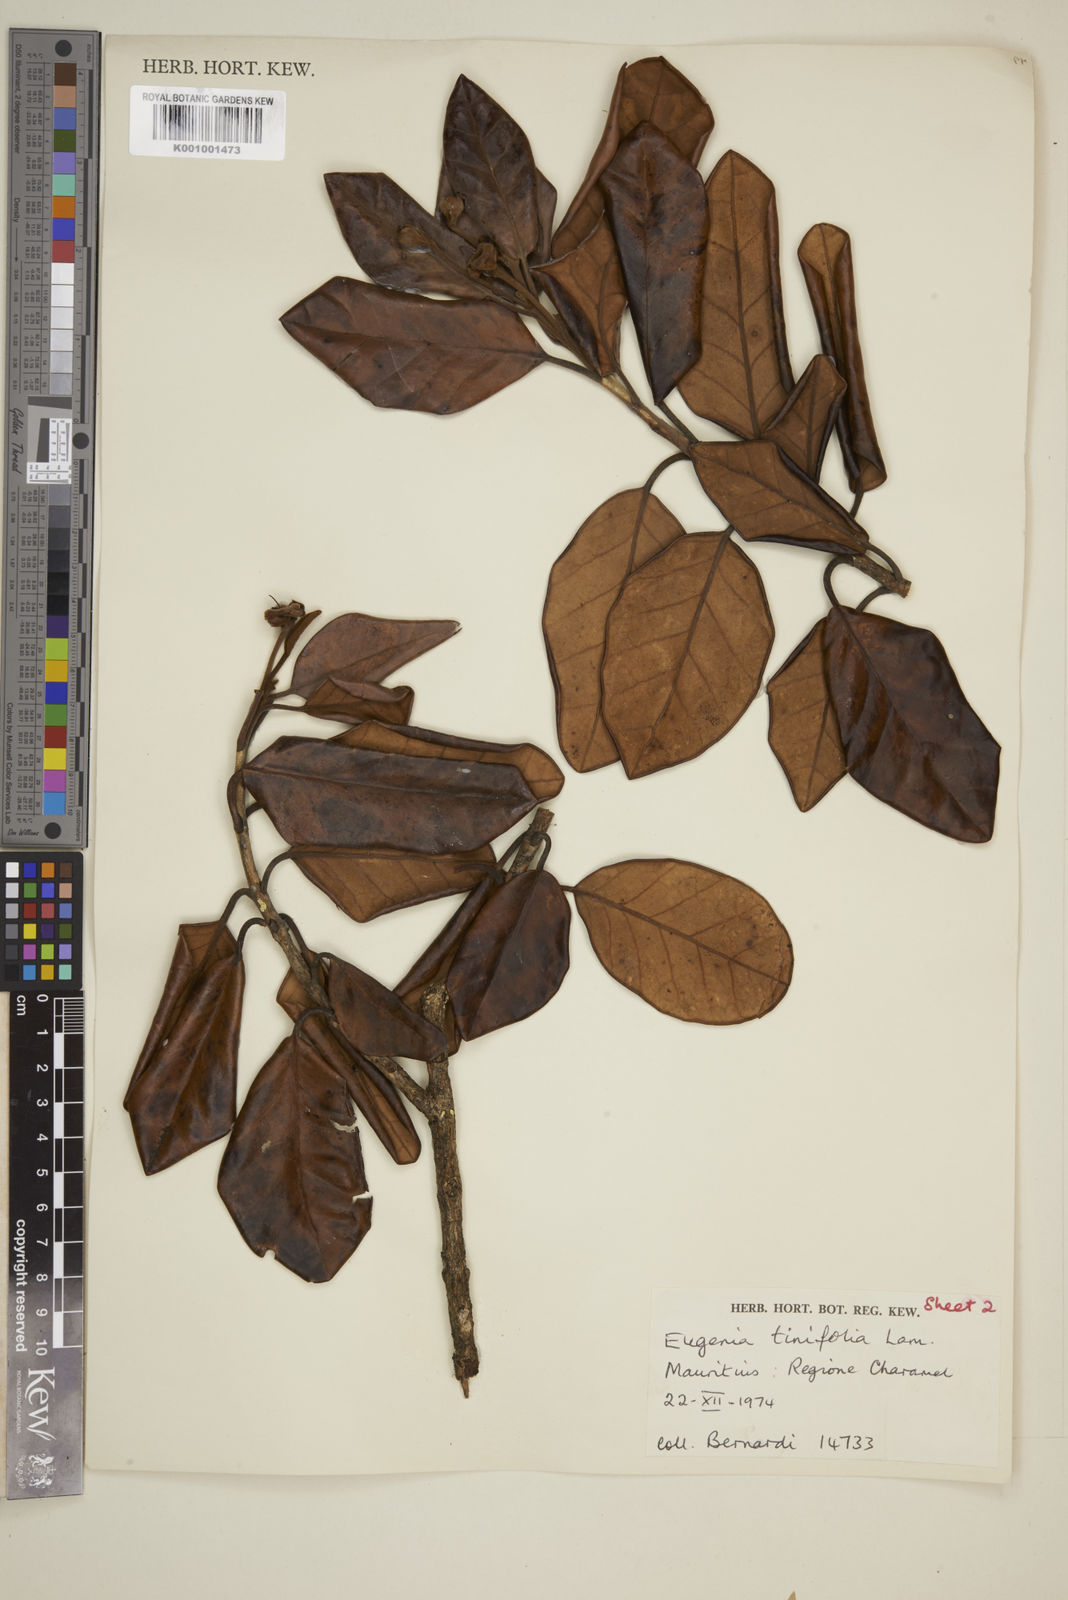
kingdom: Plantae
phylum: Tracheophyta
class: Magnoliopsida
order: Myrtales
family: Myrtaceae
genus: Eugenia
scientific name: Eugenia mespiloides
